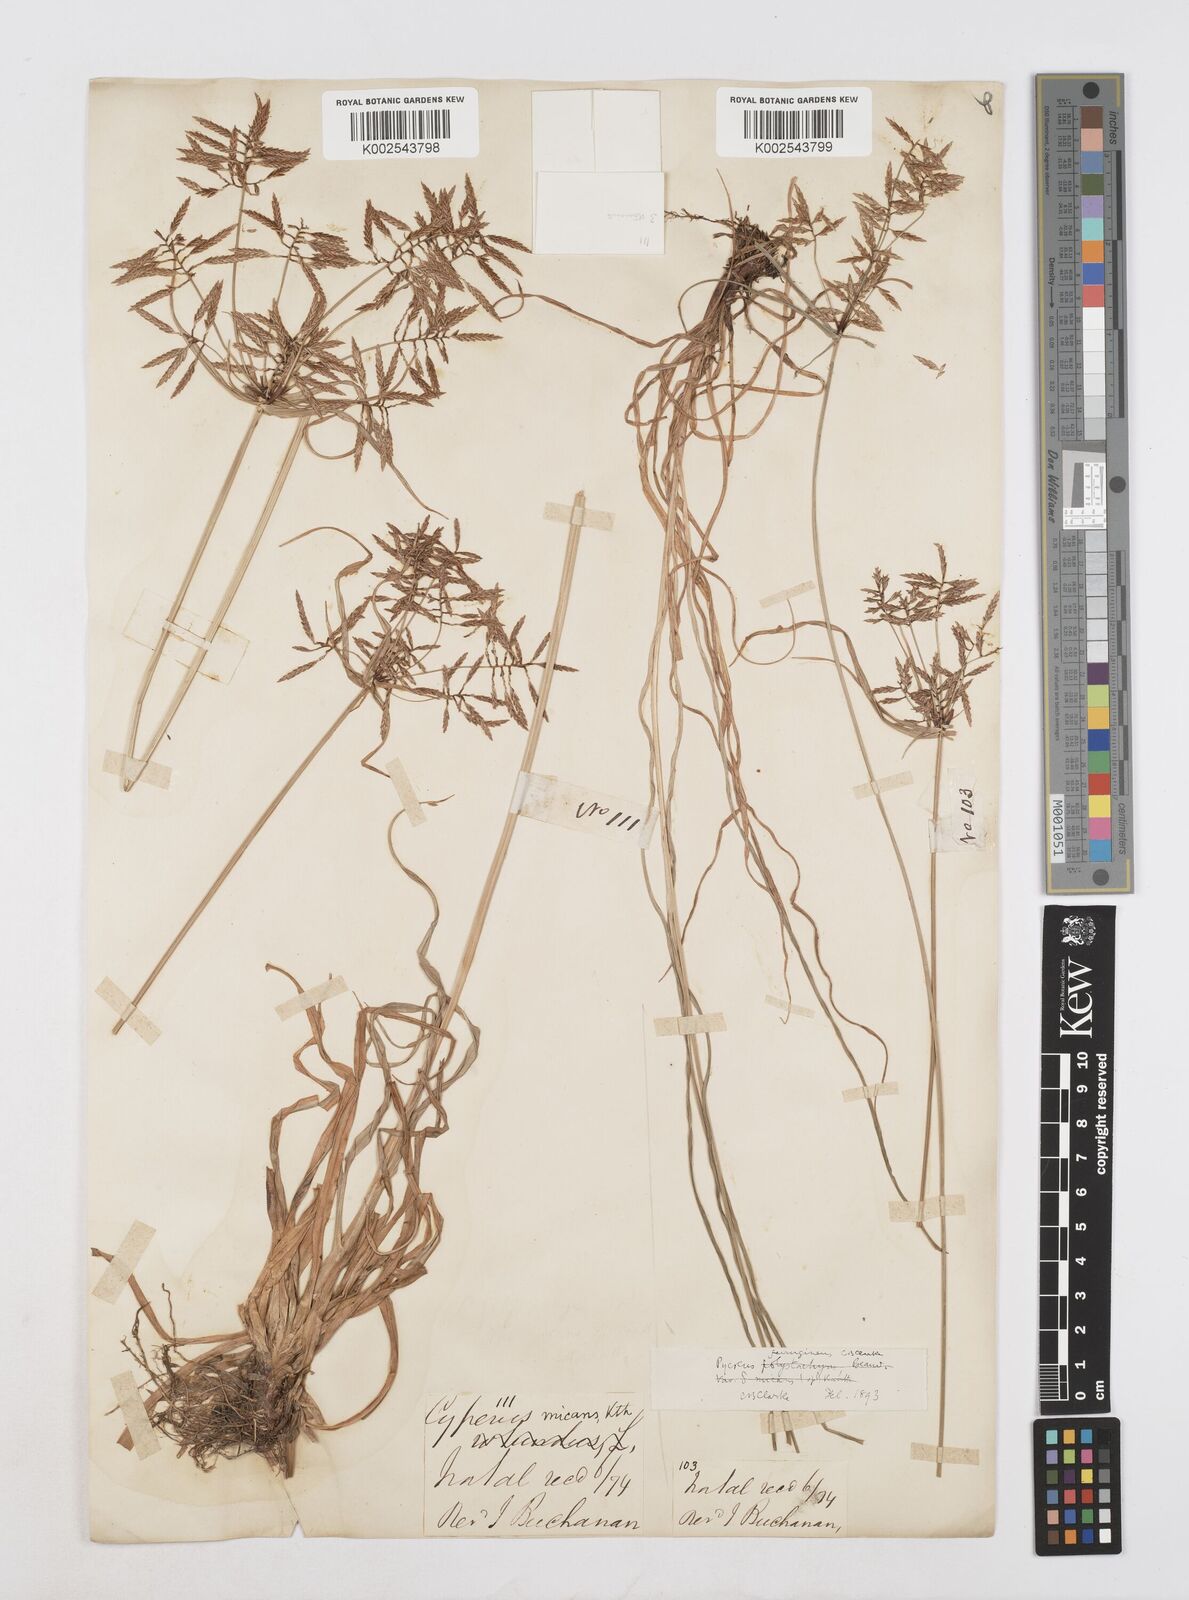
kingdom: Plantae
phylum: Tracheophyta
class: Liliopsida
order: Poales
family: Cyperaceae
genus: Cyperus
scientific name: Cyperus intactus
